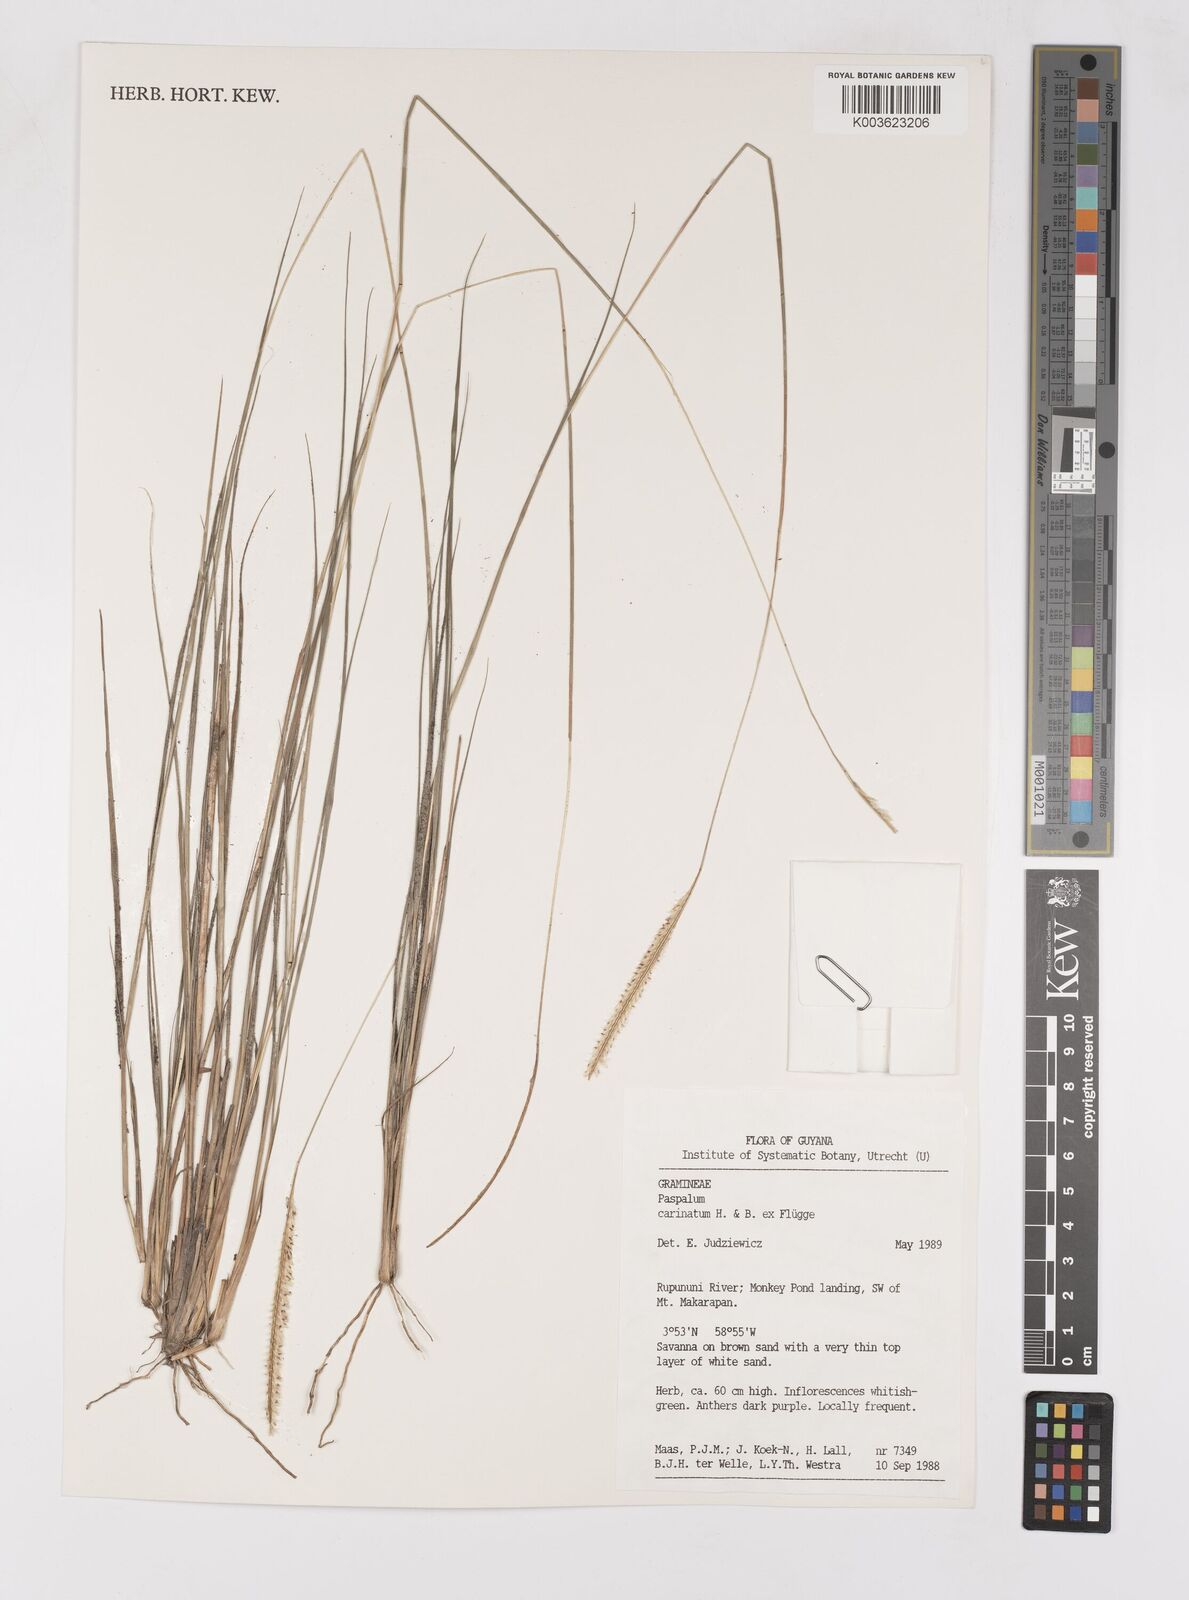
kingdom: Plantae
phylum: Tracheophyta
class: Liliopsida
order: Poales
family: Poaceae
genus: Paspalum
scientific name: Paspalum carinatum
